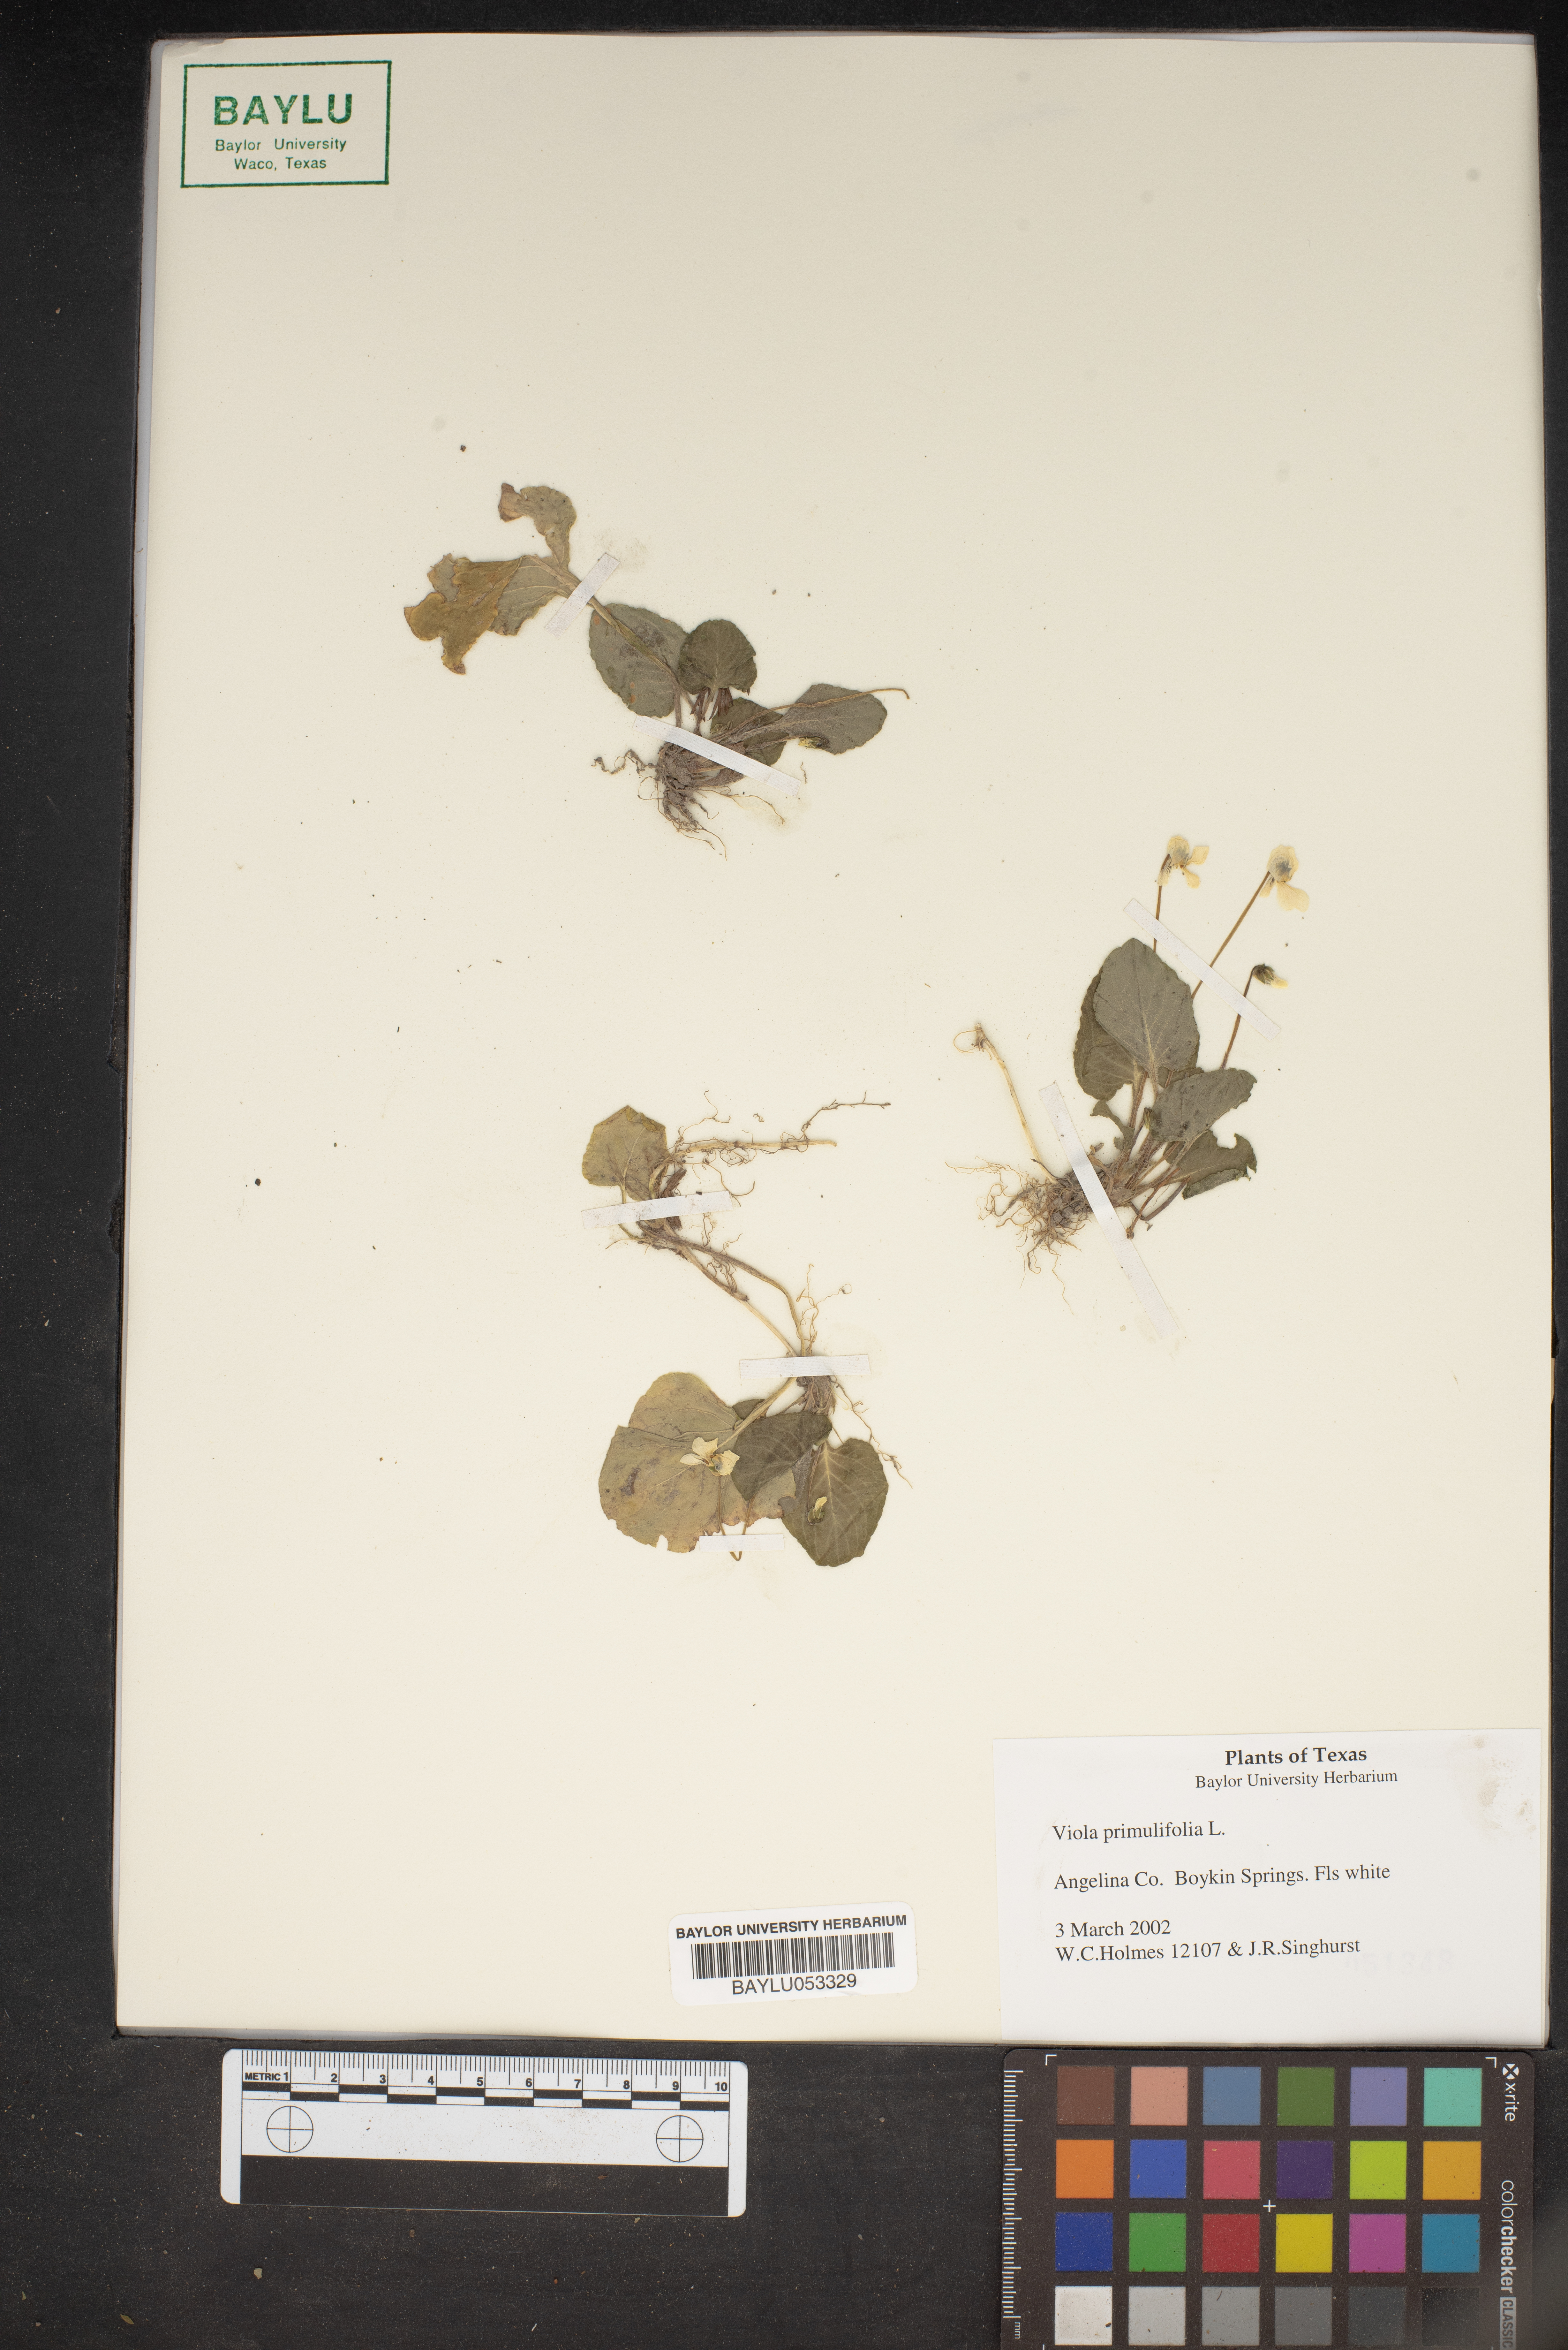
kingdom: Plantae
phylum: Tracheophyta
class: Magnoliopsida
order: Malpighiales
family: Violaceae
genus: Viola
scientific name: Viola primulifolia
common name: Primrose-leaf violet
